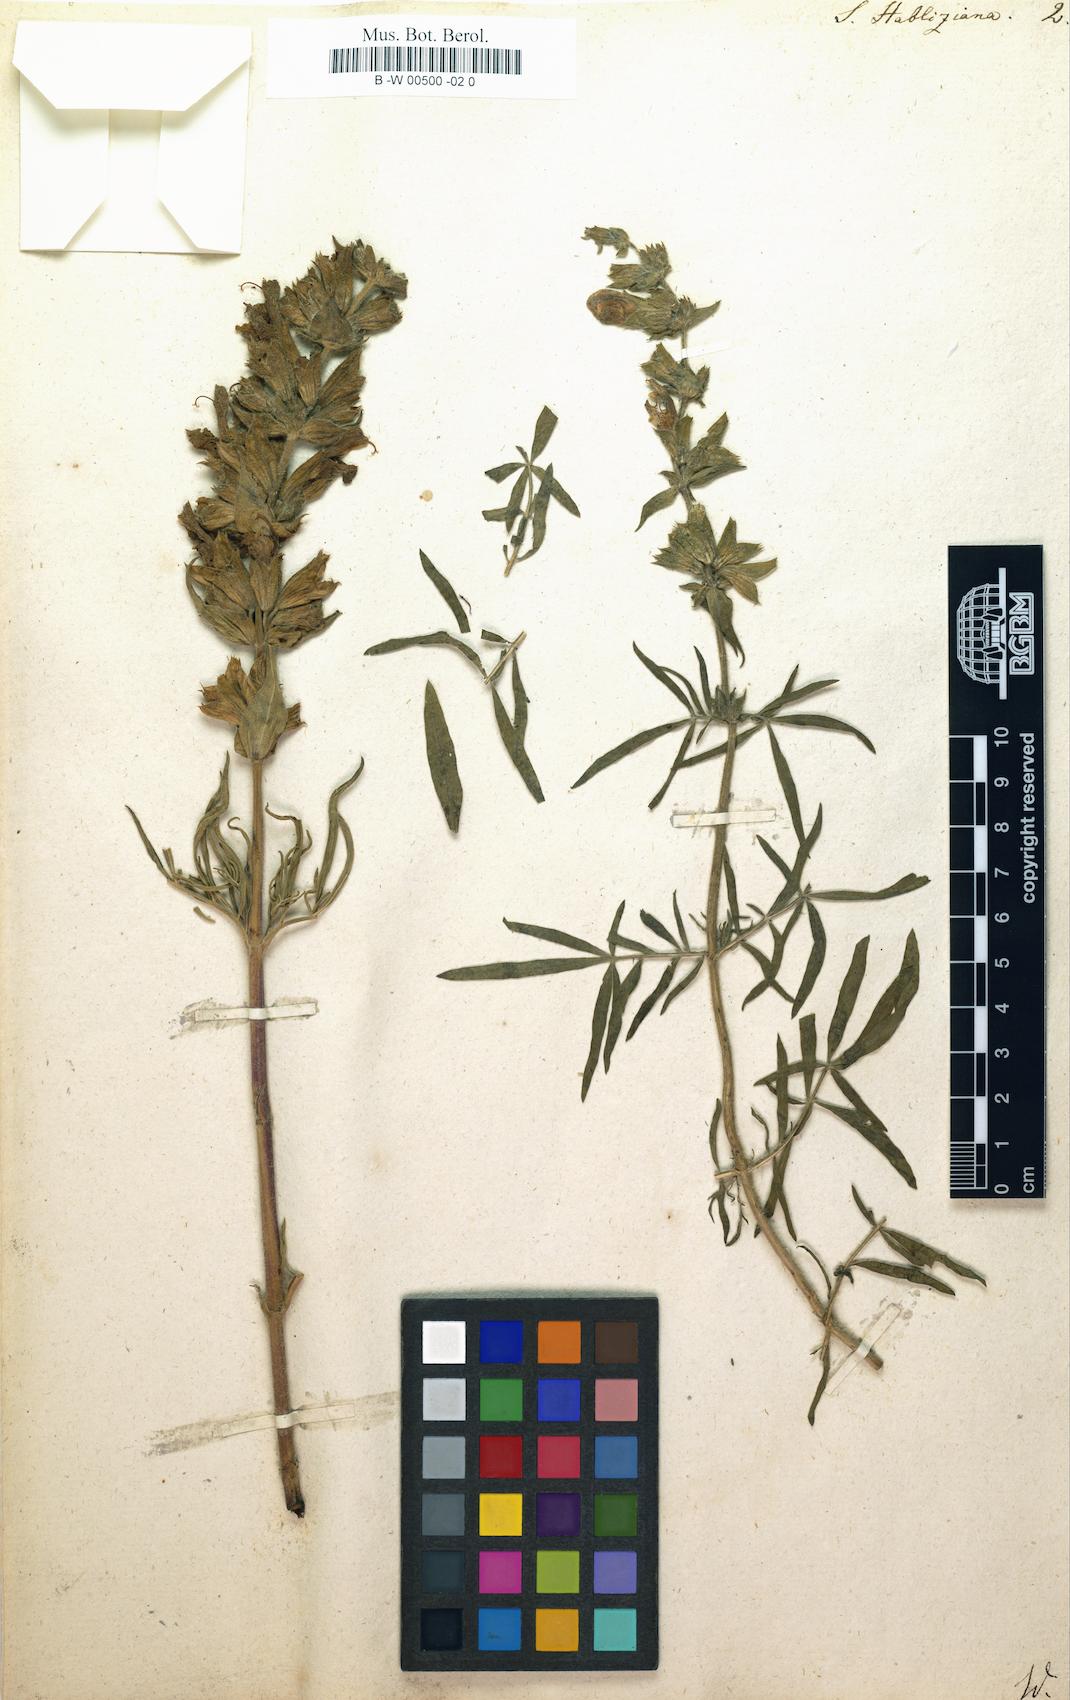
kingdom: Plantae
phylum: Tracheophyta
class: Magnoliopsida
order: Lamiales
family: Lamiaceae
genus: Salvia
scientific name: Salvia scabiosifolia
